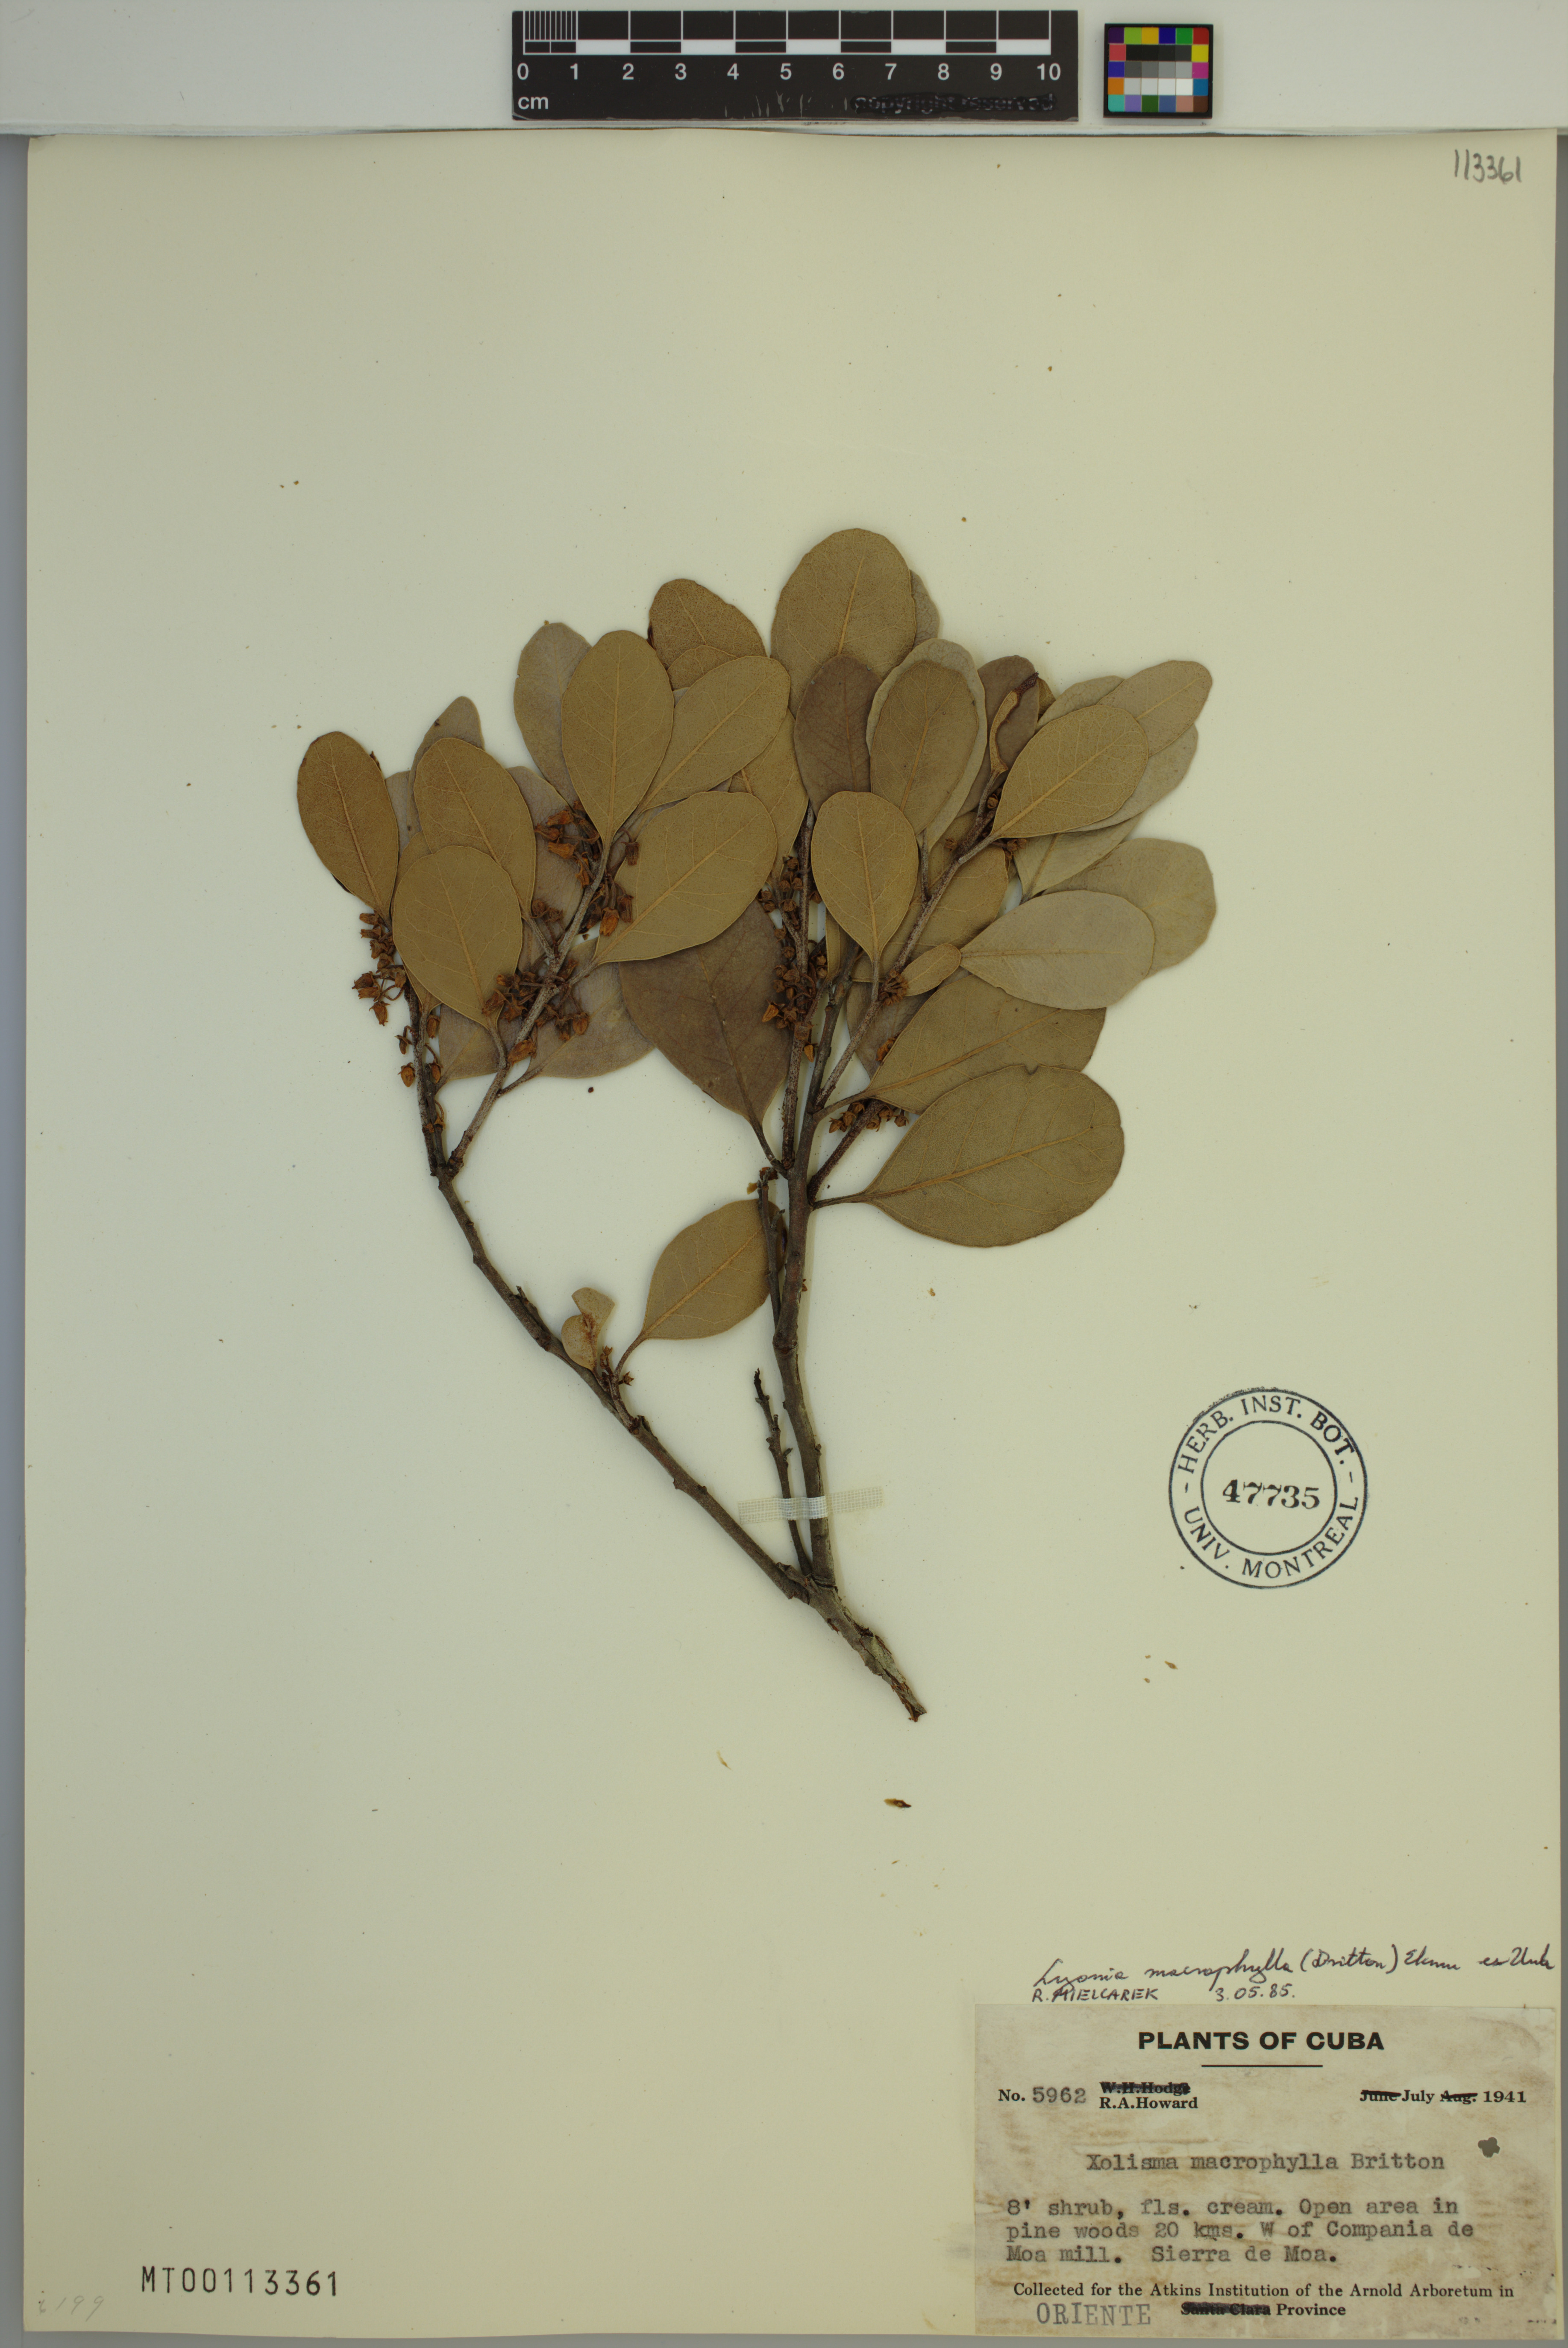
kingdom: Plantae
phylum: Tracheophyta
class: Magnoliopsida
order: Ericales
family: Ericaceae
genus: Lyonia
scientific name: Lyonia macrophylla
